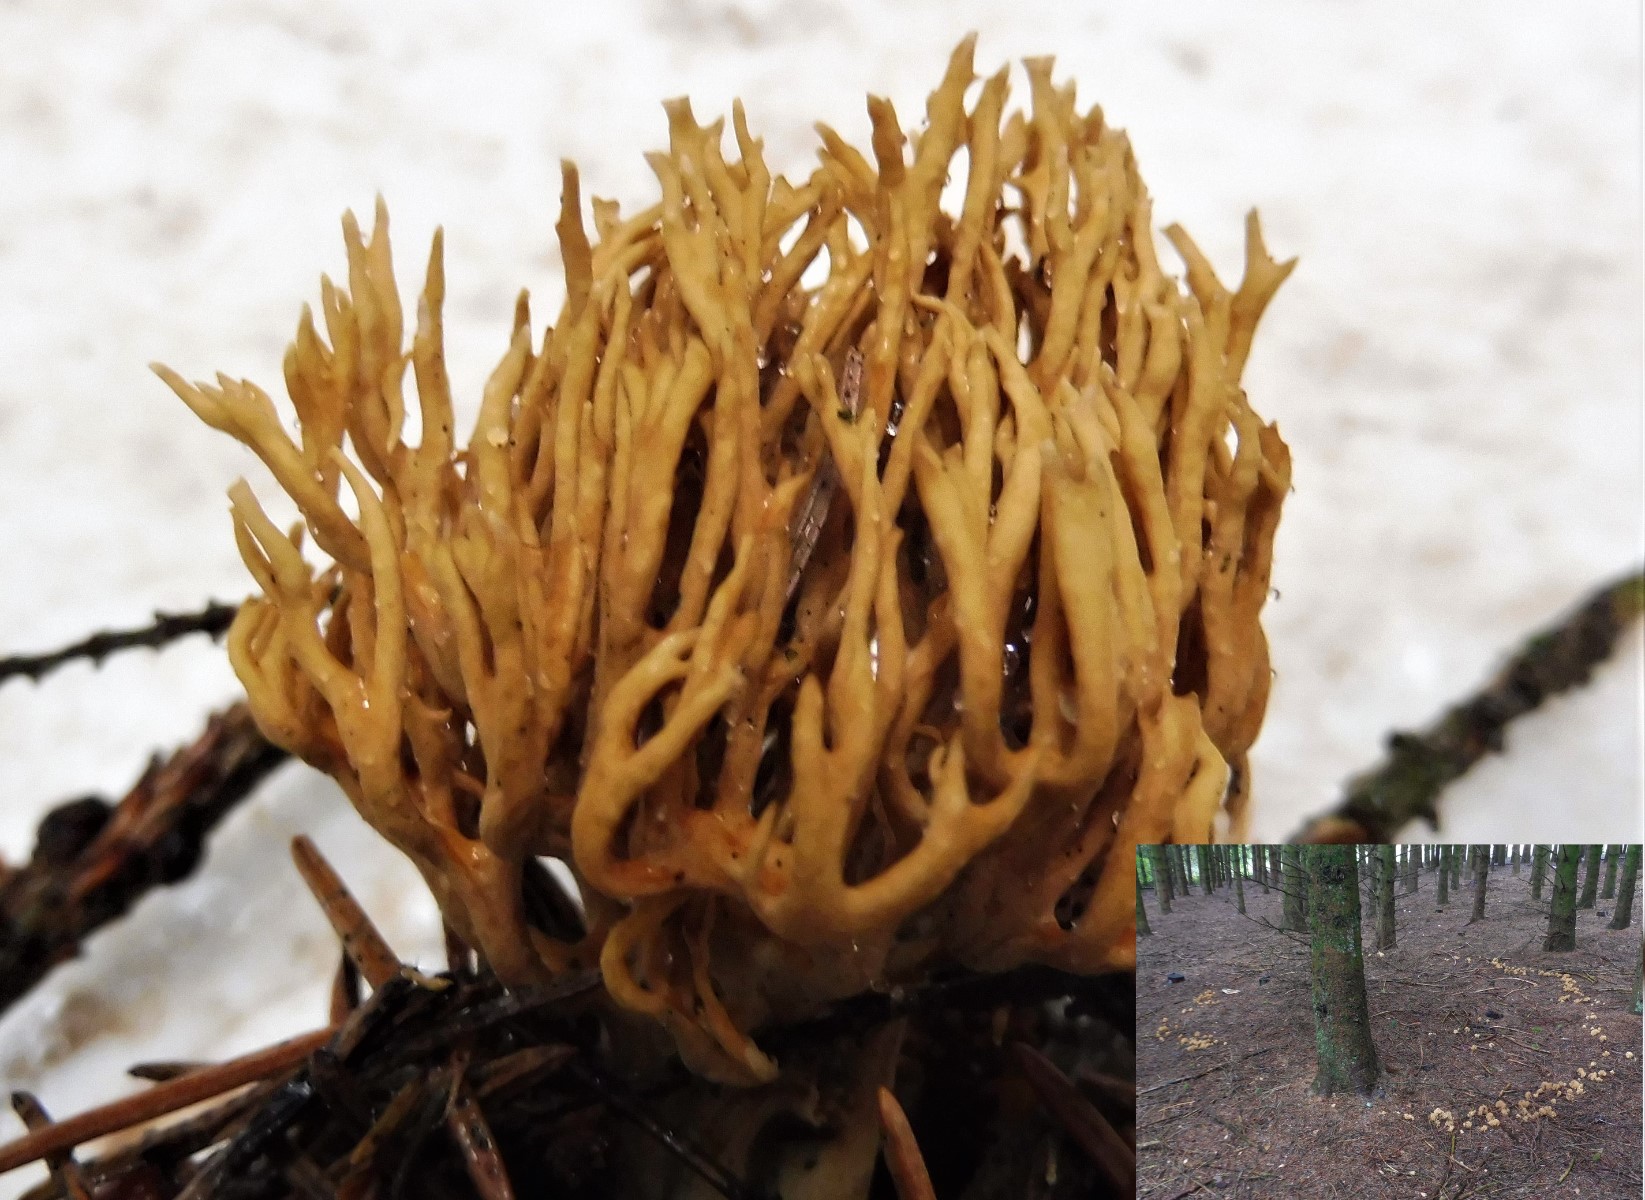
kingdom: Fungi
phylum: Basidiomycota
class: Agaricomycetes
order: Gomphales
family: Gomphaceae
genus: Phaeoclavulina
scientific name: Phaeoclavulina eumorpha
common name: gran-koralsvamp
